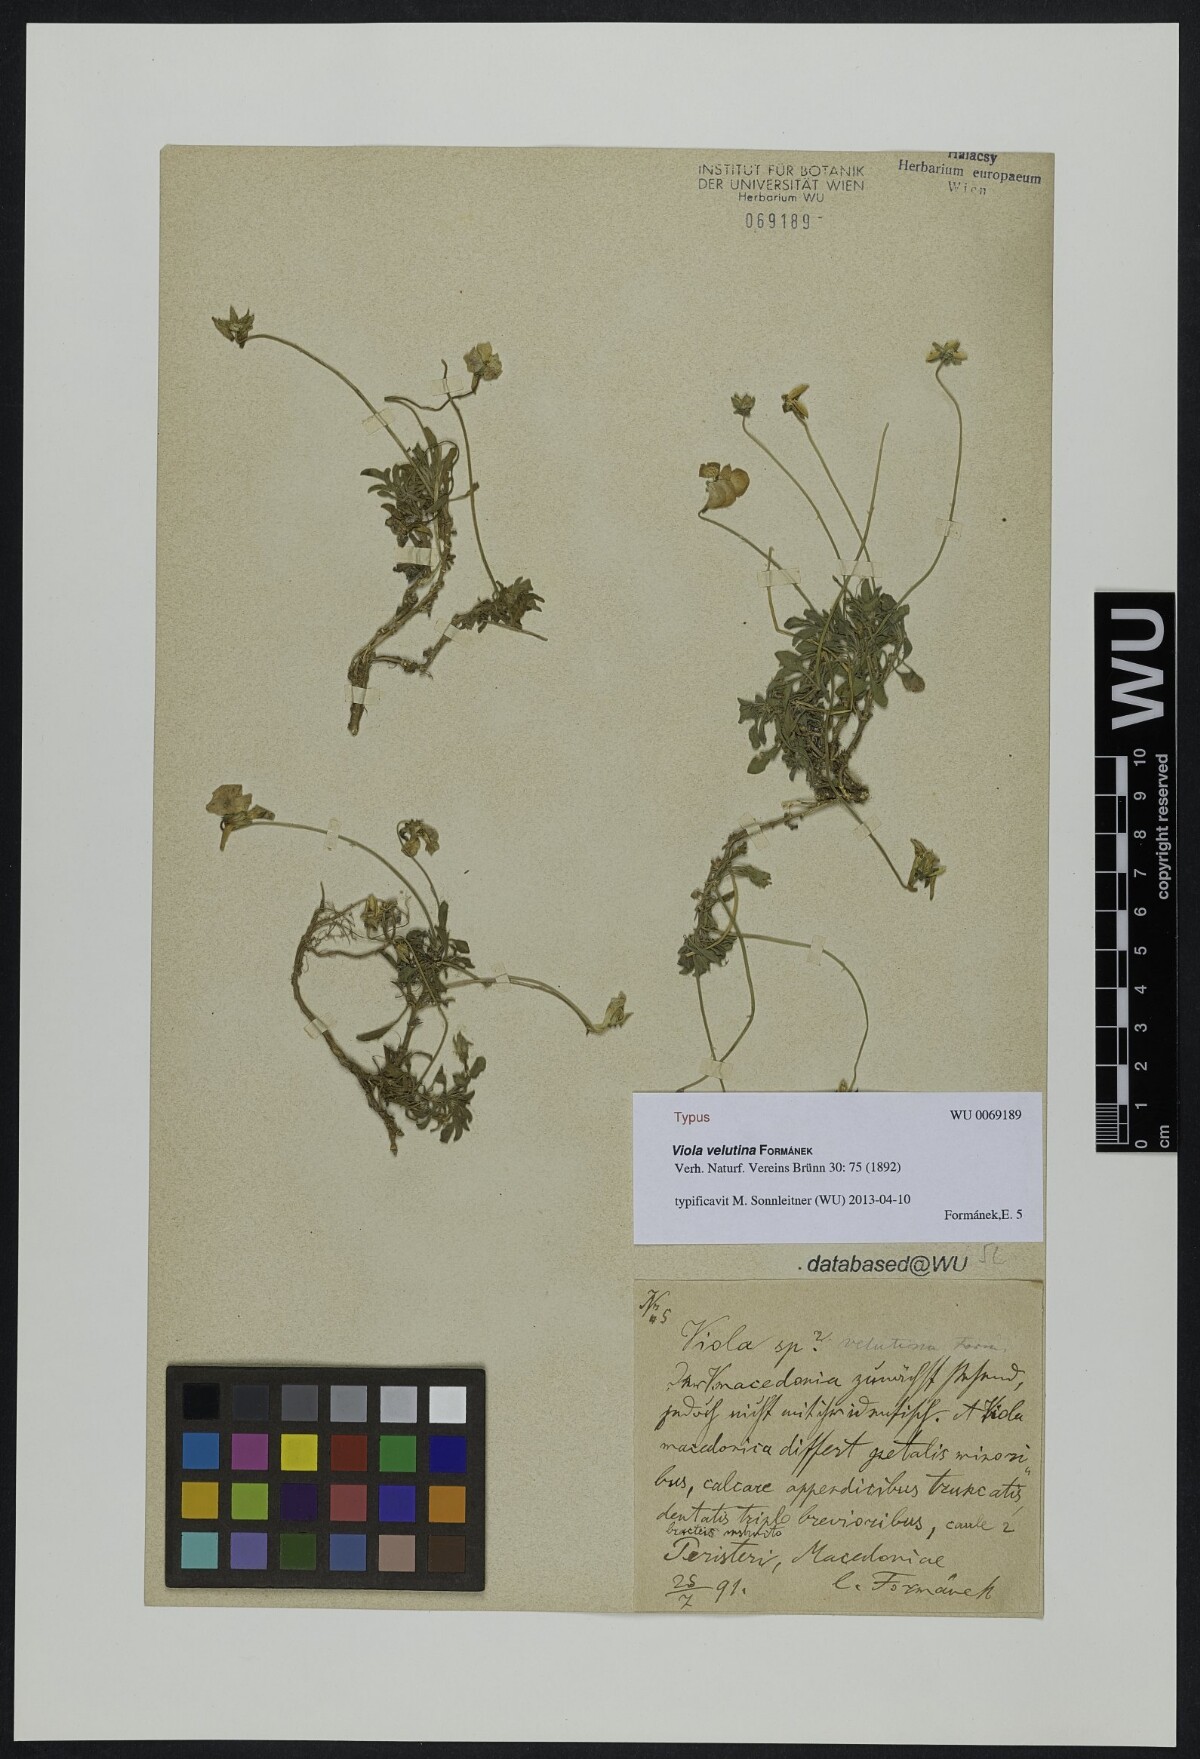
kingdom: Plantae
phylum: Tracheophyta
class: Magnoliopsida
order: Malpighiales
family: Violaceae
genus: Viola
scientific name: Viola velutina
